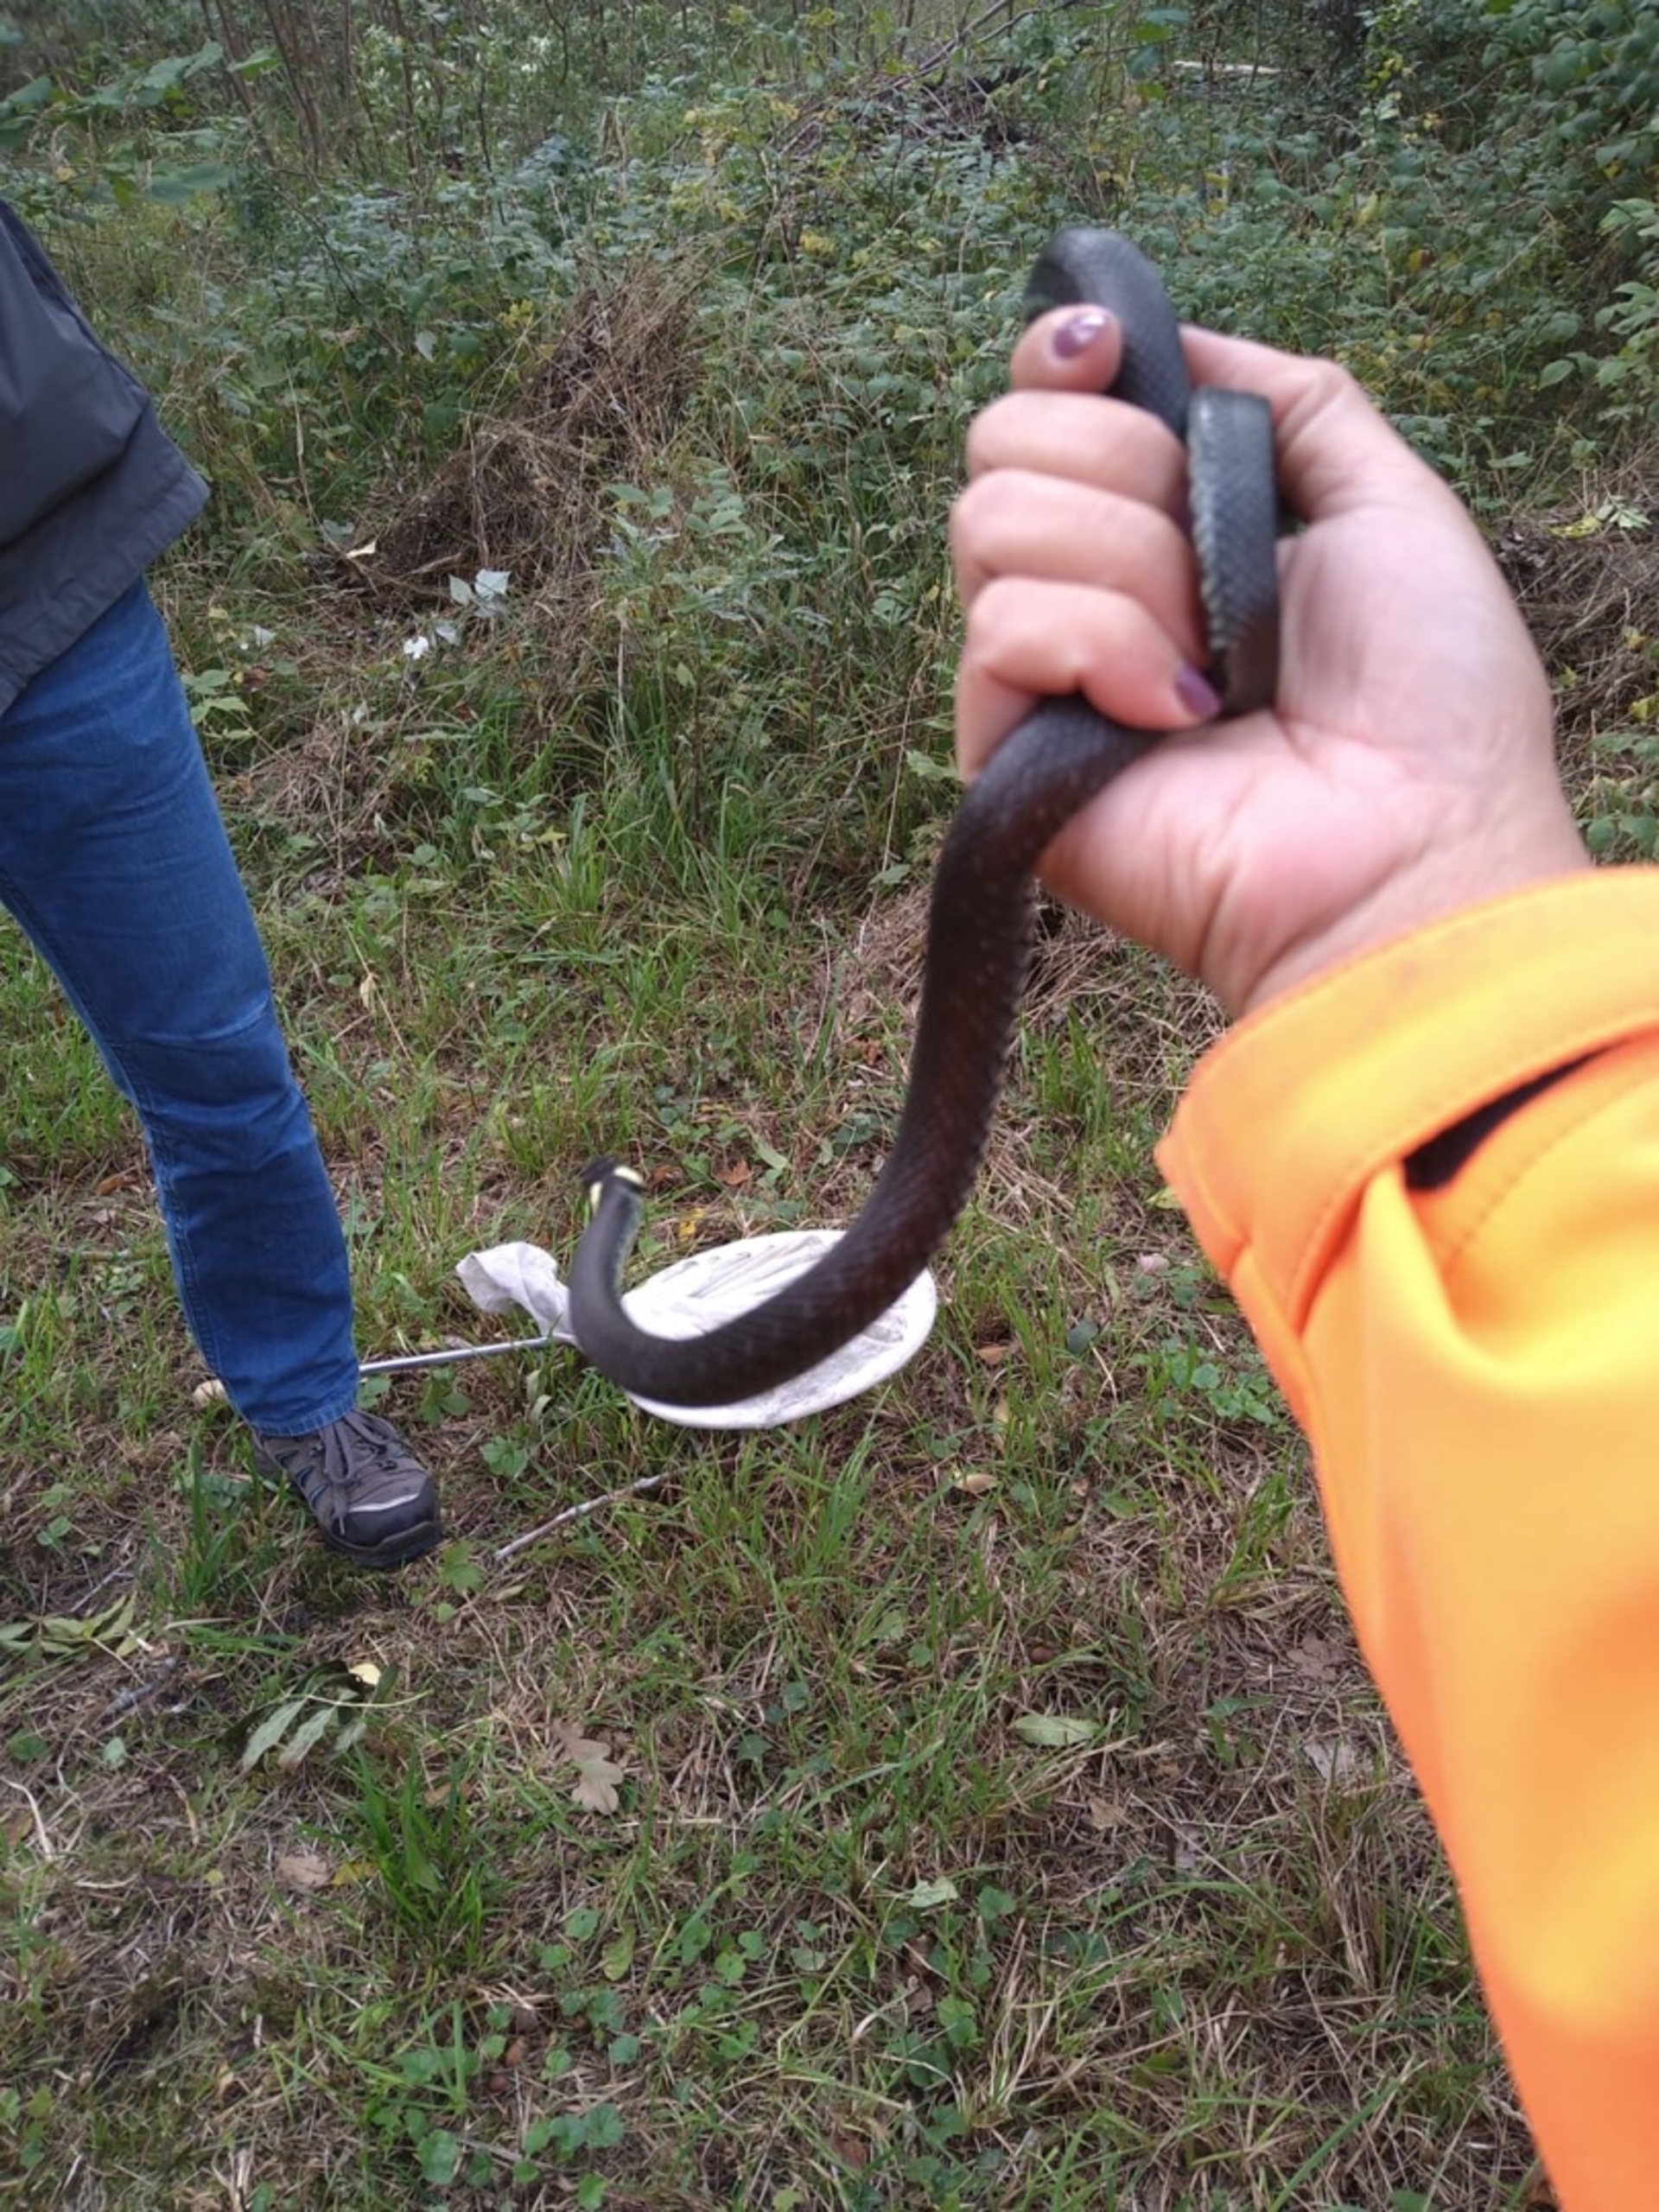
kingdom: Animalia
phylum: Chordata
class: Squamata
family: Colubridae
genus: Natrix
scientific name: Natrix natrix
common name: Snog
